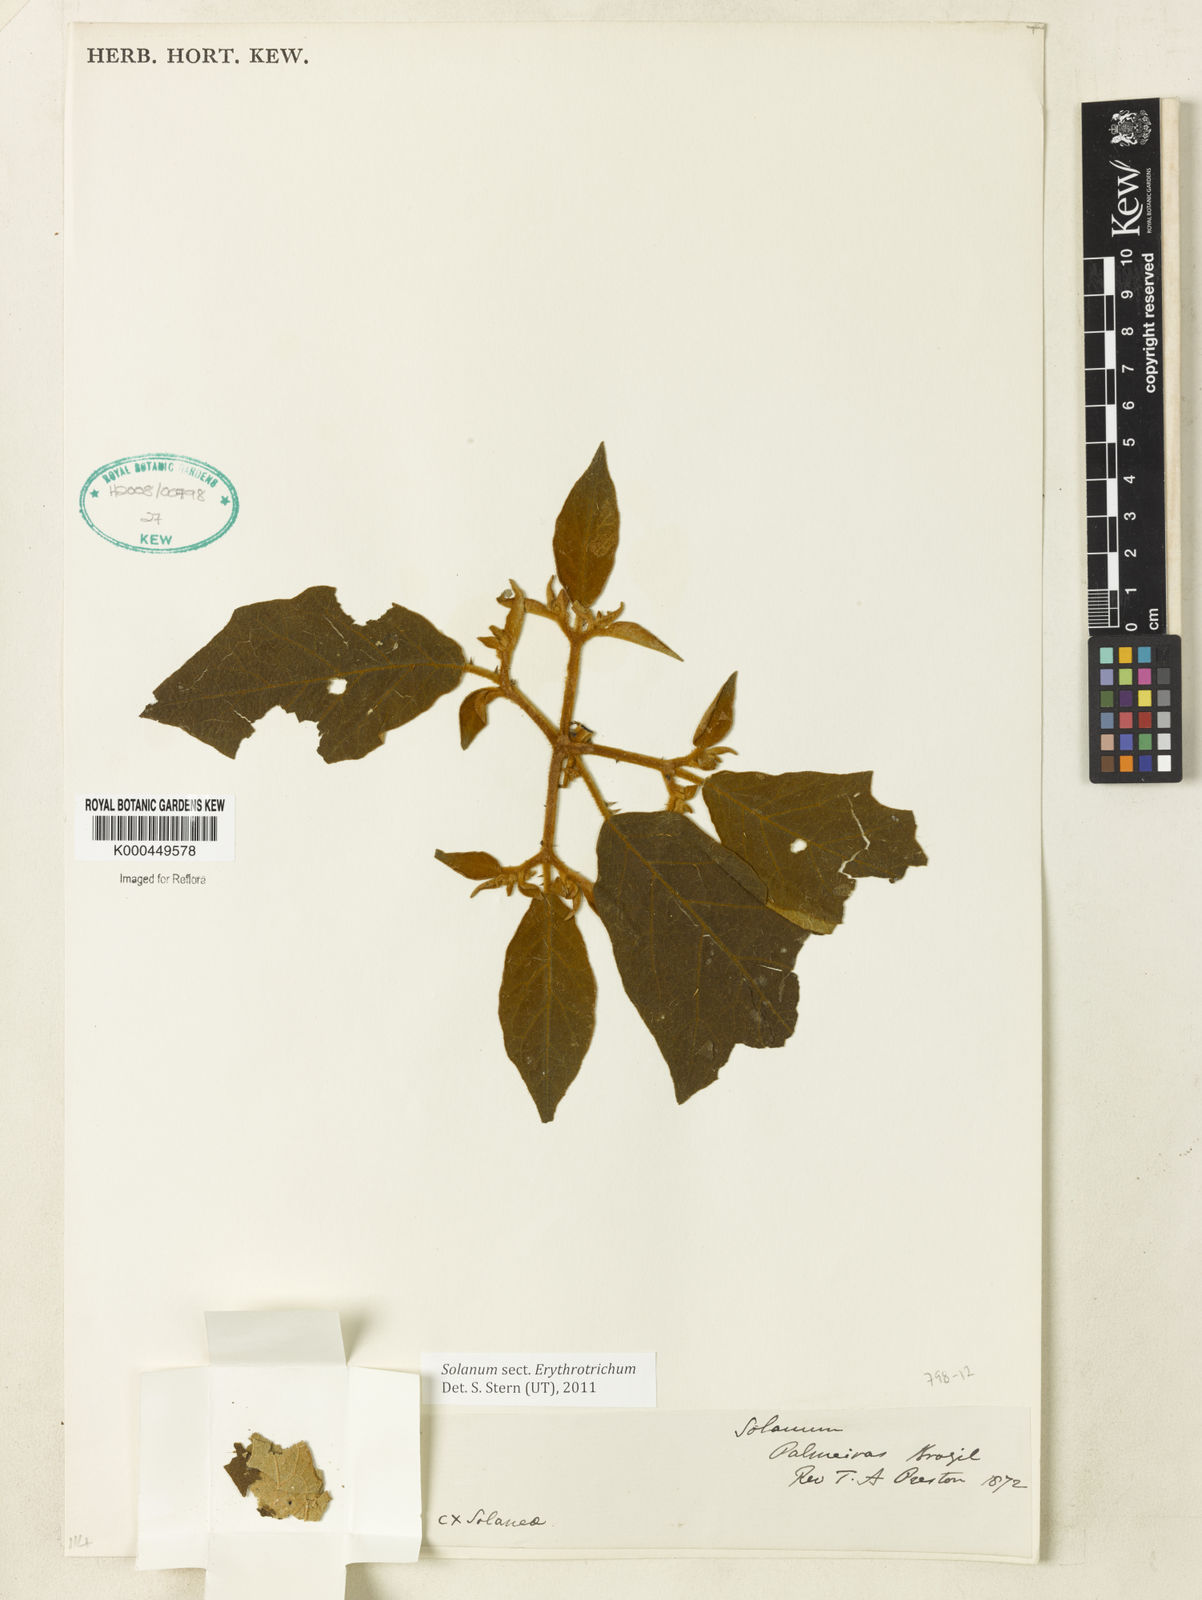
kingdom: Plantae
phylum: Tracheophyta
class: Magnoliopsida
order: Solanales
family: Solanaceae
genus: Solanum
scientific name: Solanum piluliferum
